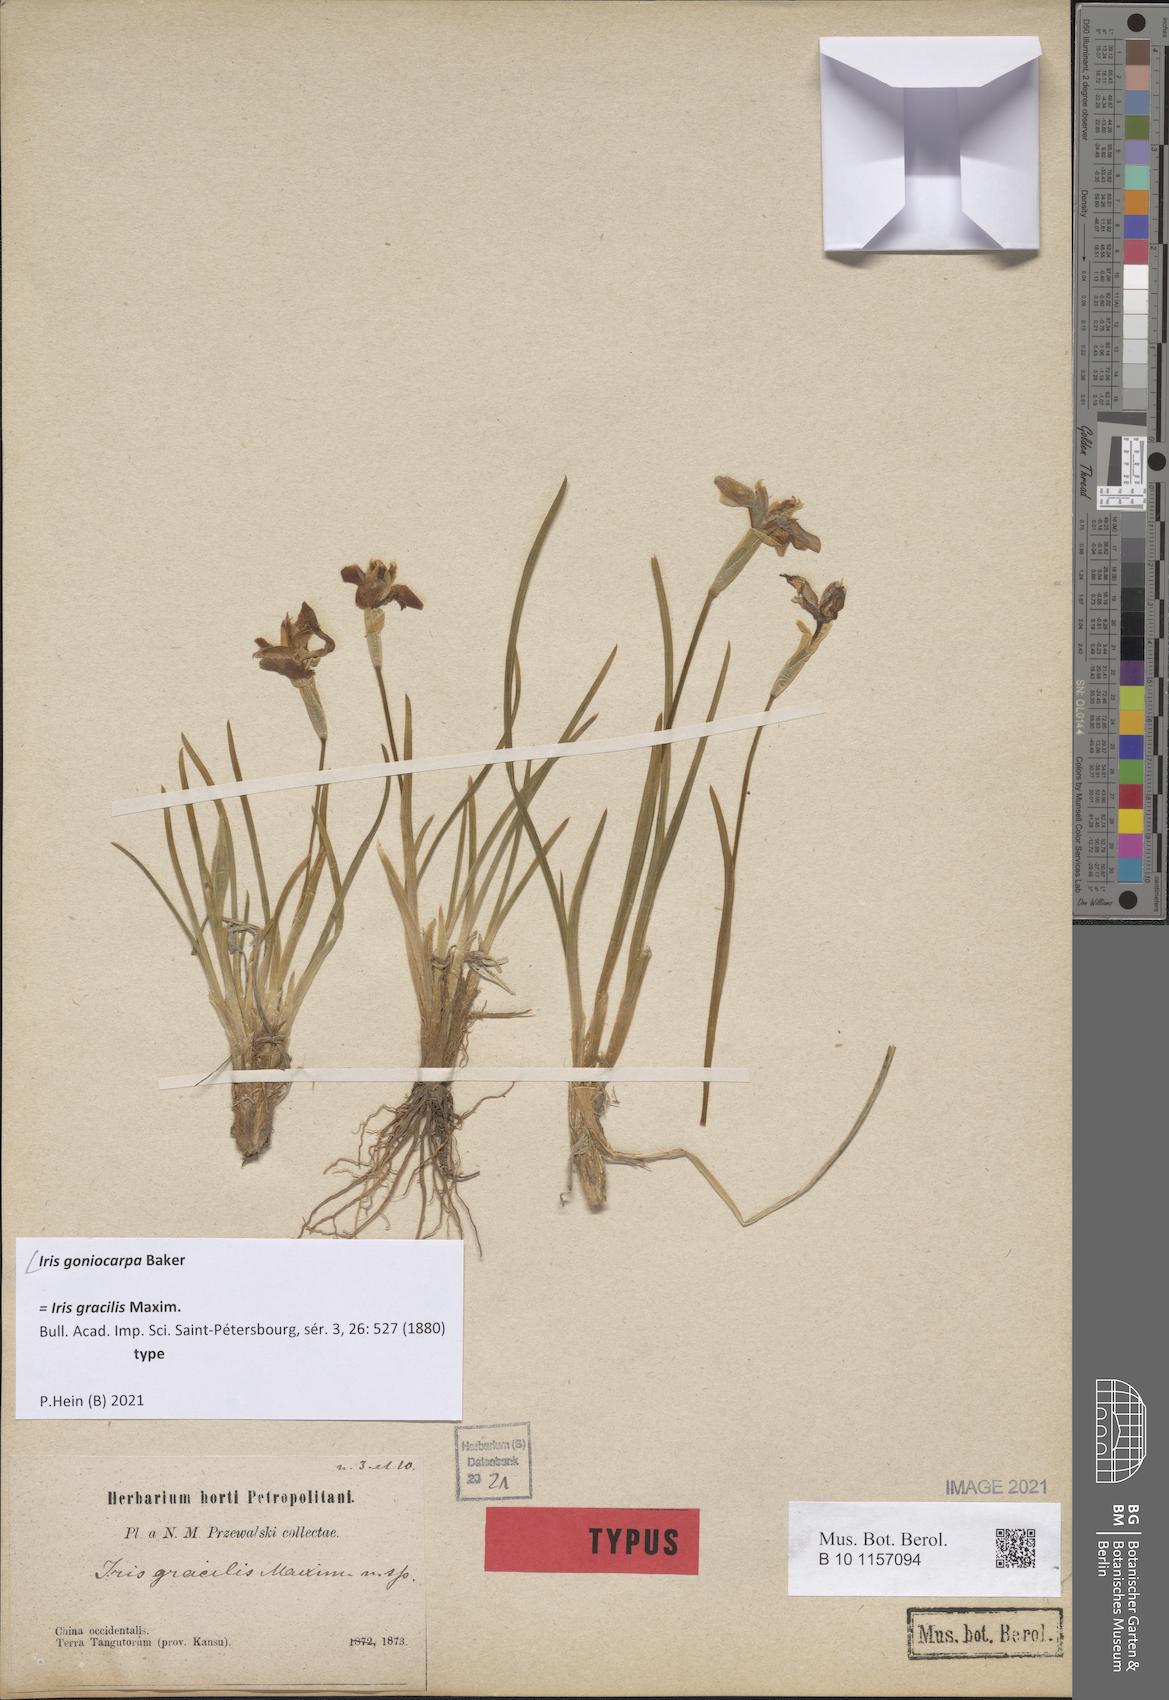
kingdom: Plantae
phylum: Tracheophyta
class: Liliopsida
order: Asparagales
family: Iridaceae
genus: Iris
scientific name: Iris goniocarpa
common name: Angular-fruit iris
